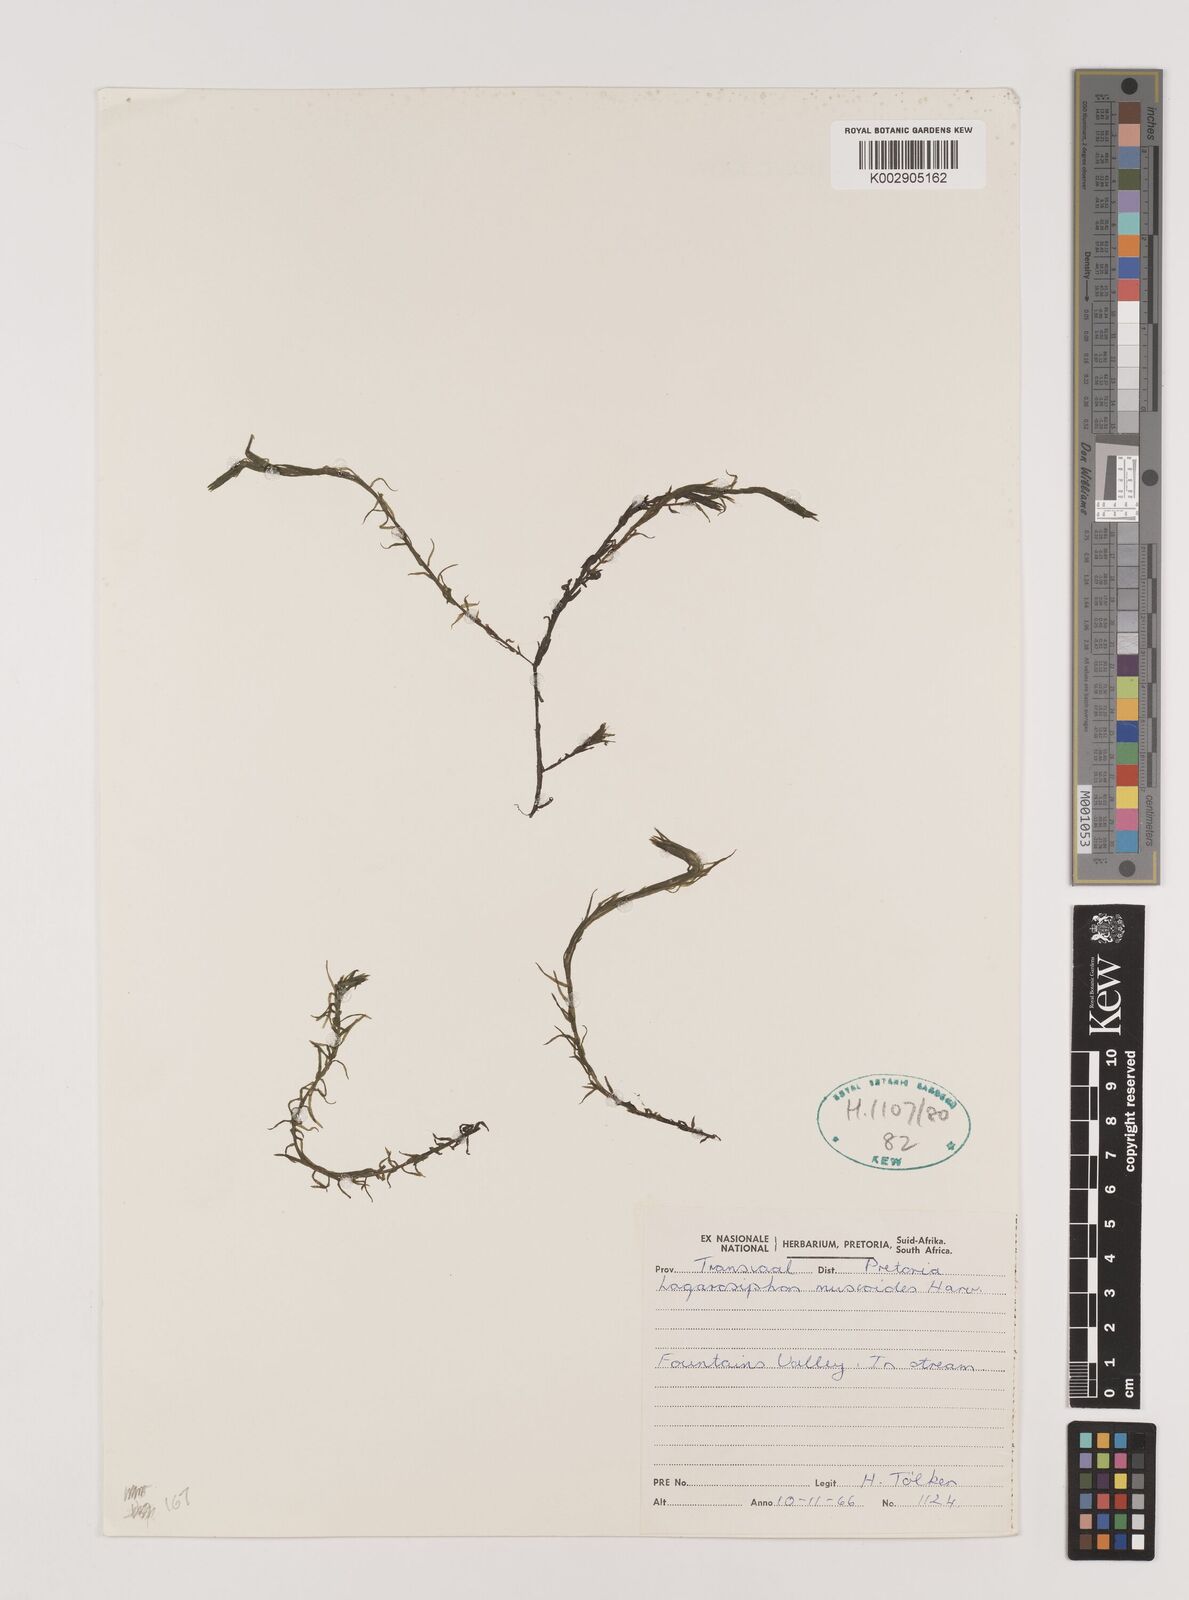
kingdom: Plantae
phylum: Tracheophyta
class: Liliopsida
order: Alismatales
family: Hydrocharitaceae
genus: Lagarosiphon
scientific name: Lagarosiphon muscoides
